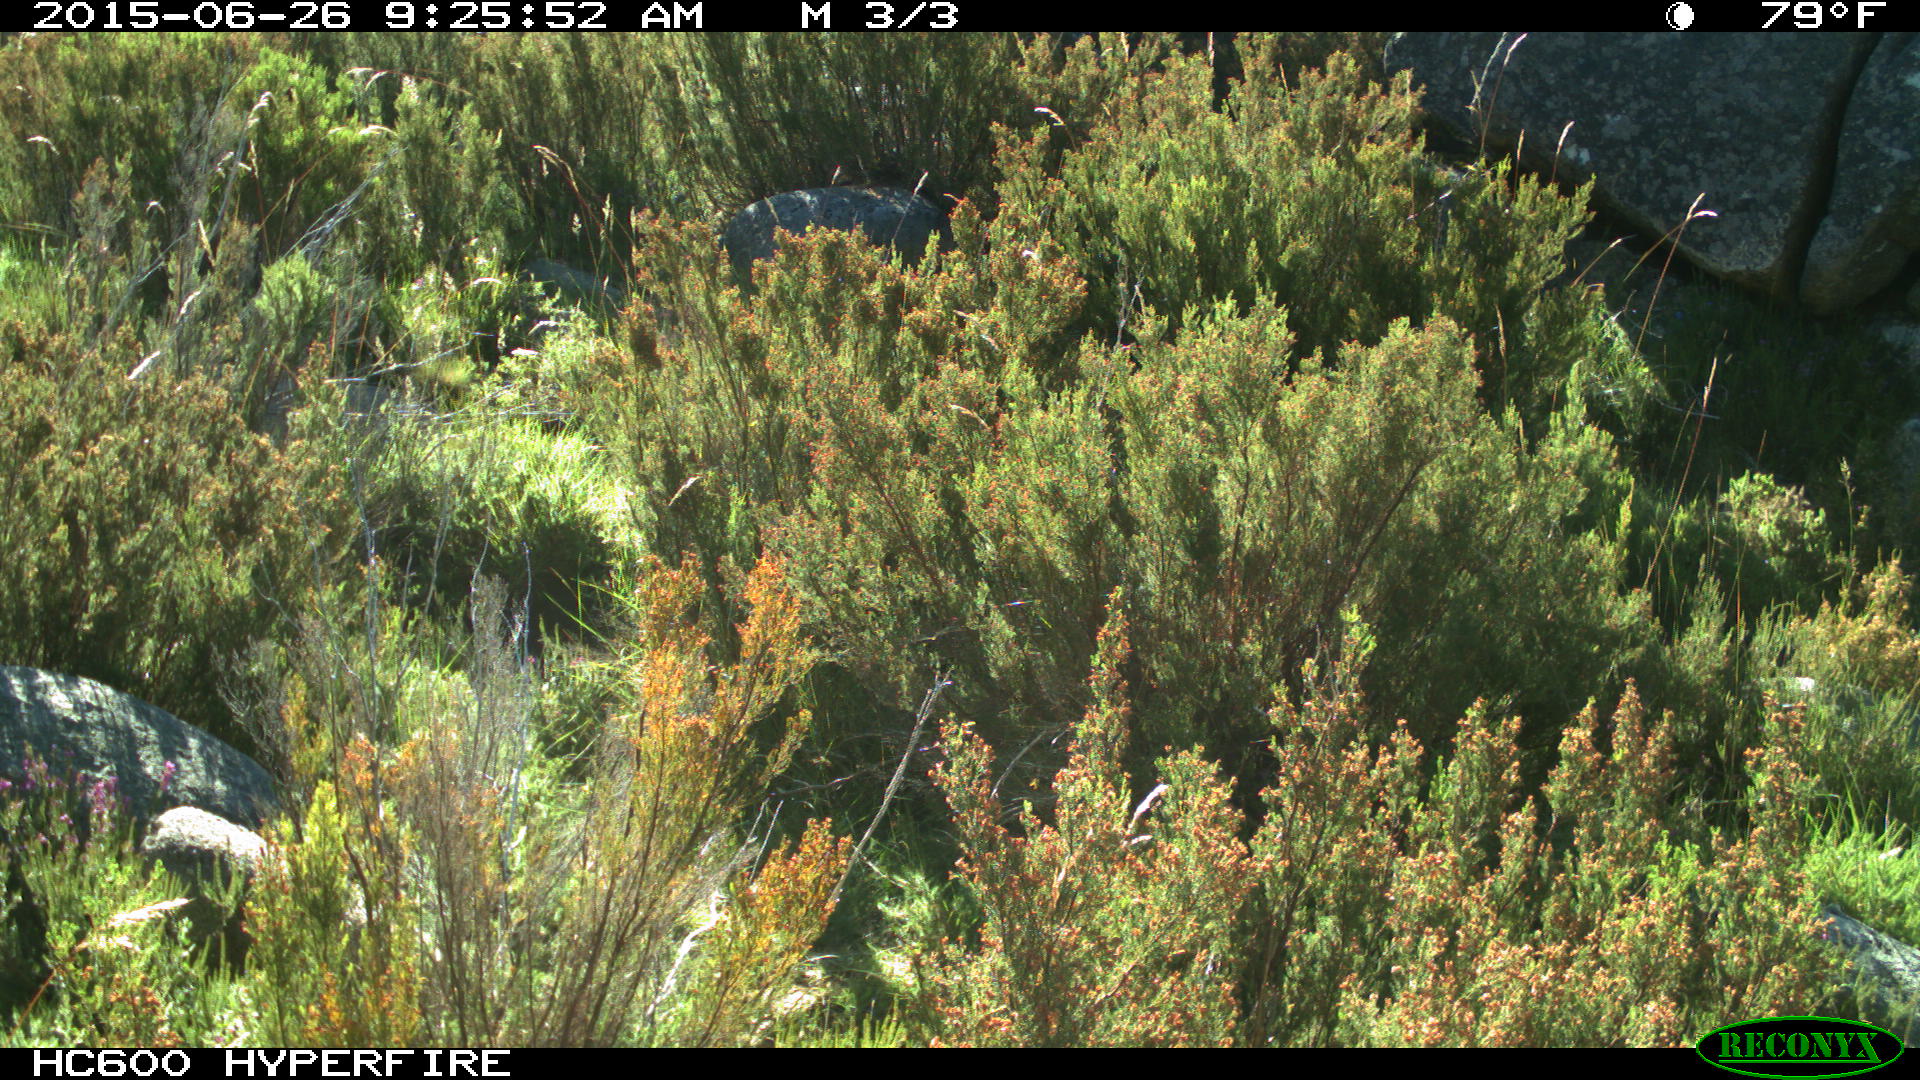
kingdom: Animalia
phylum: Chordata
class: Mammalia
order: Artiodactyla
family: Bovidae
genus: Bos
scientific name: Bos taurus
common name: Domesticated cattle
